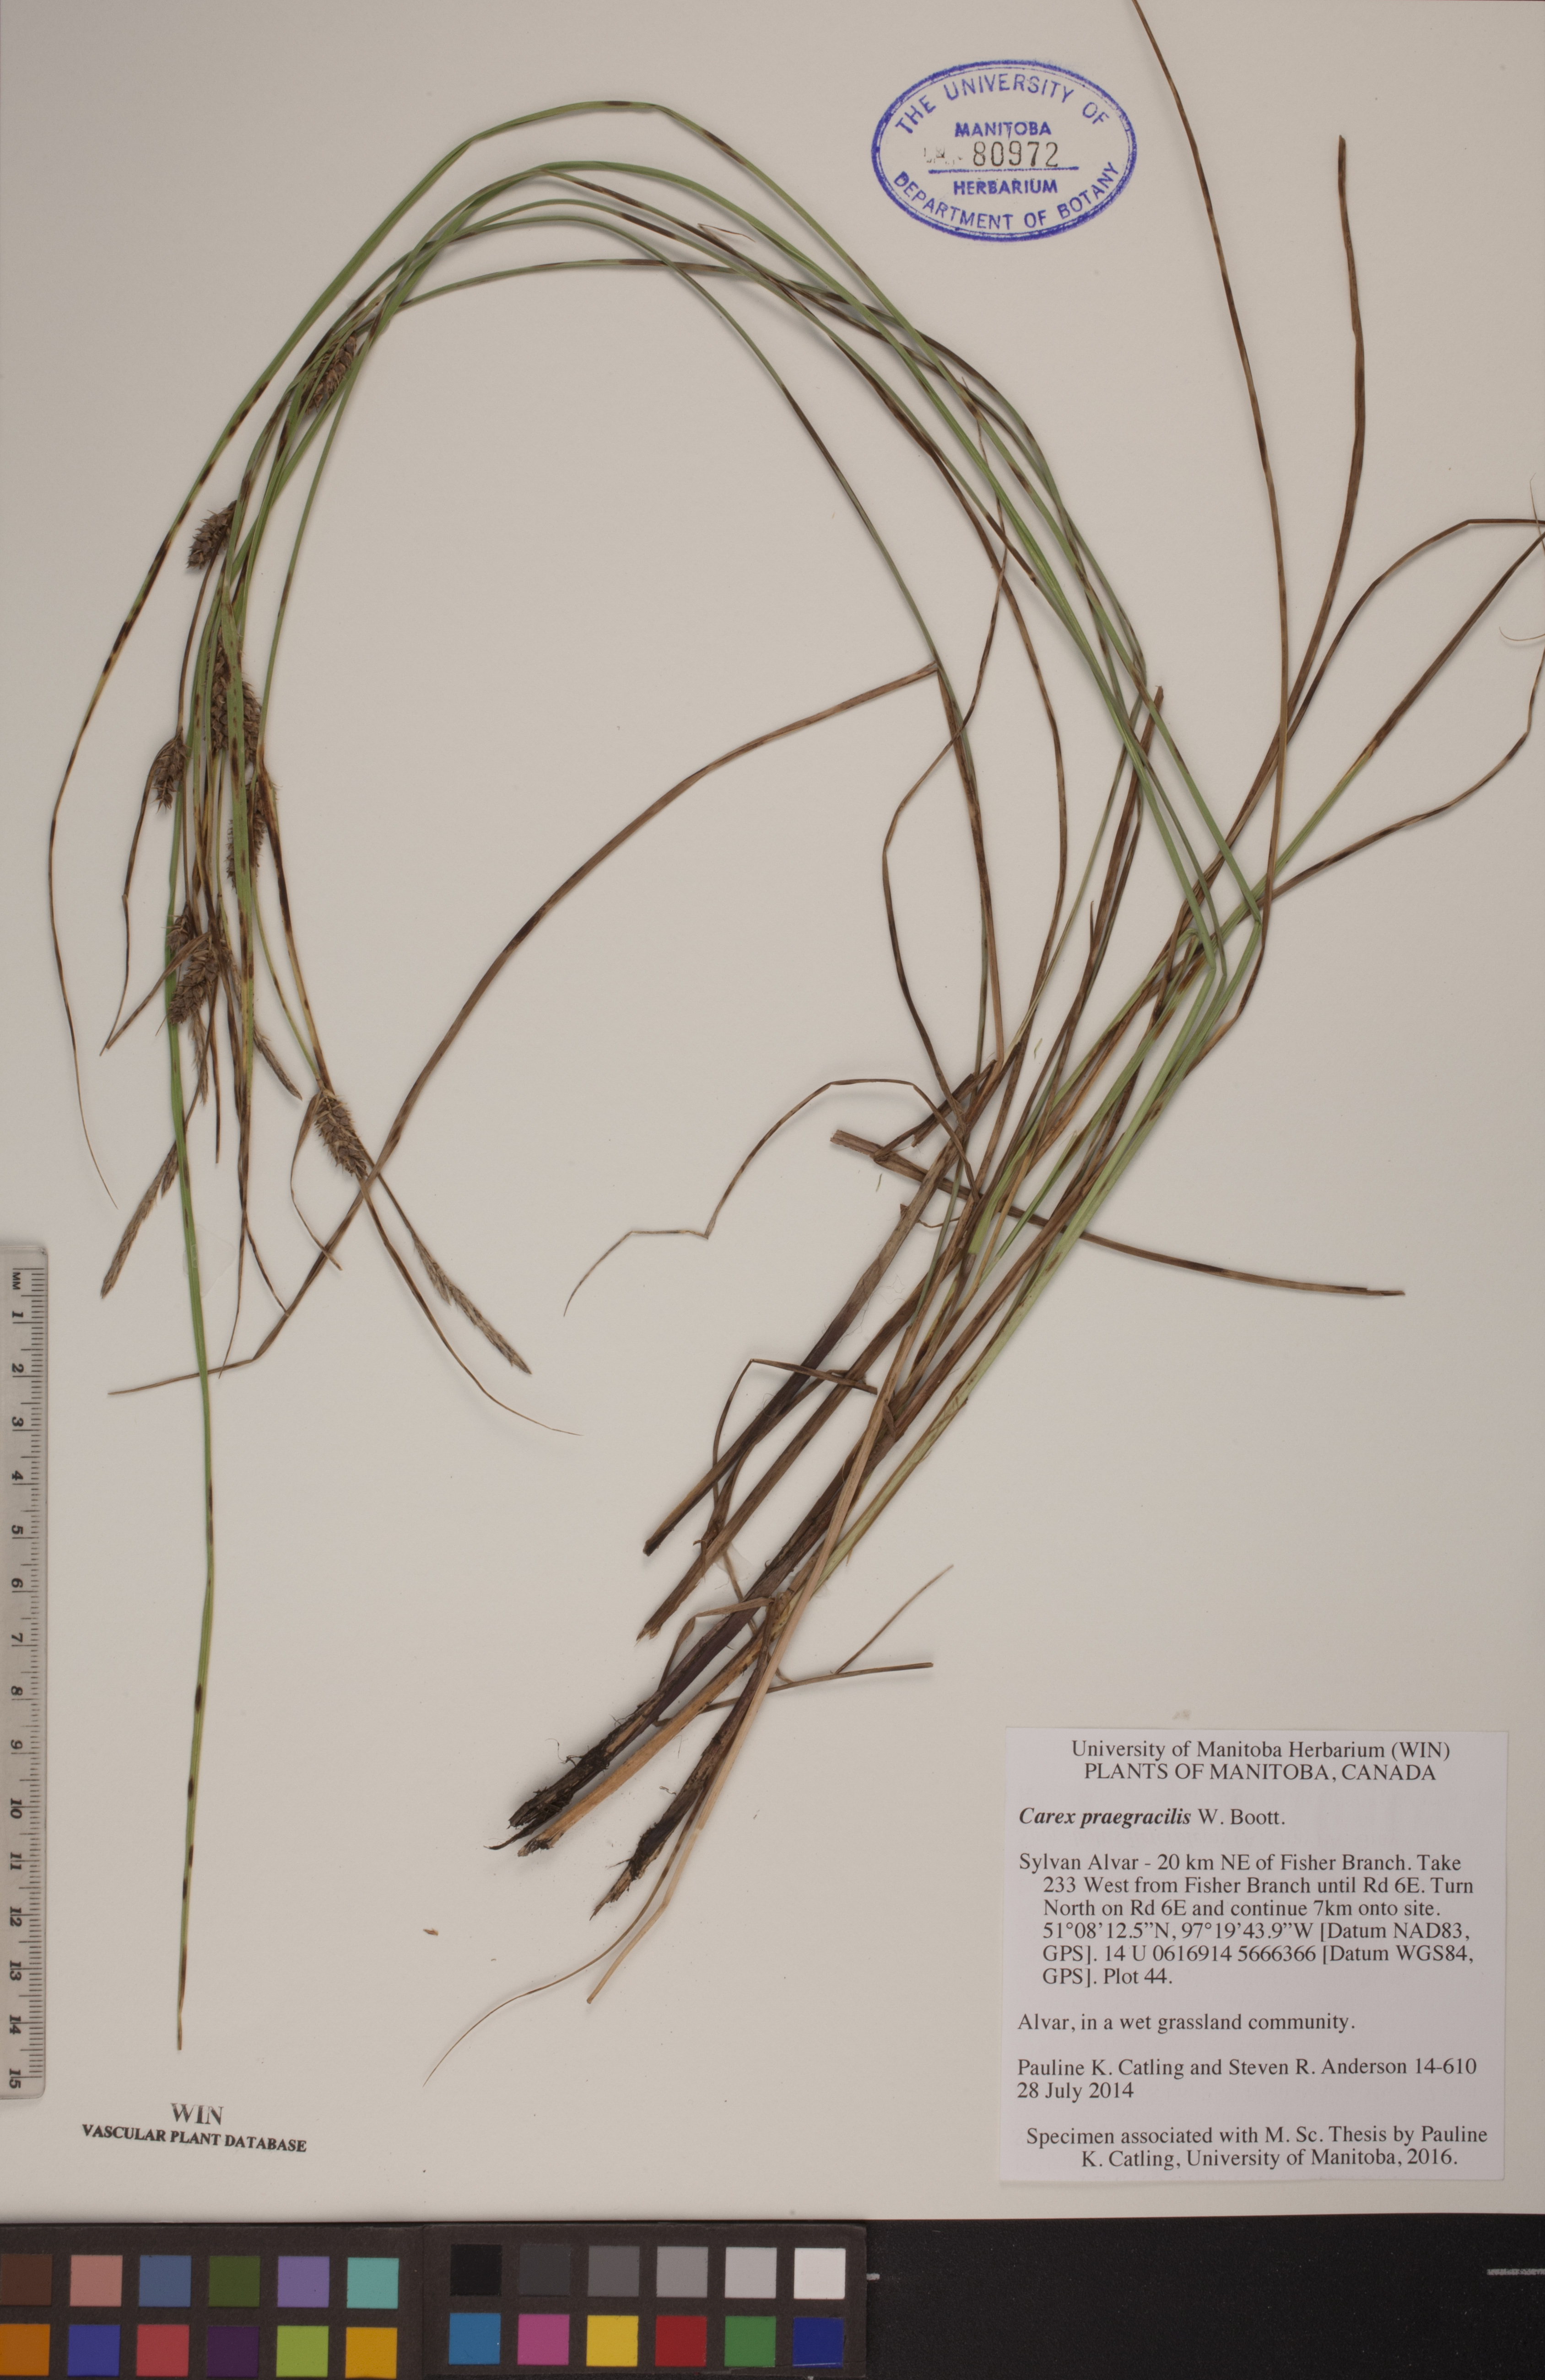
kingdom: Plantae
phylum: Tracheophyta
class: Liliopsida
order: Poales
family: Cyperaceae
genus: Carex
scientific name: Carex lasiocarpa
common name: Slender sedge
